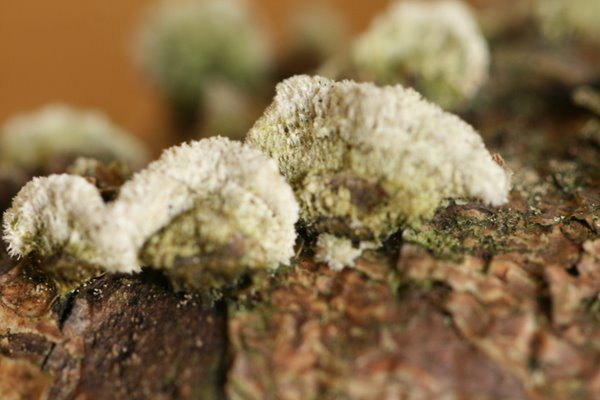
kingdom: Fungi
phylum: Basidiomycota
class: Agaricomycetes
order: Hymenochaetales
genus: Trichaptum
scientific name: Trichaptum abietinum
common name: almindelig violporesvamp
